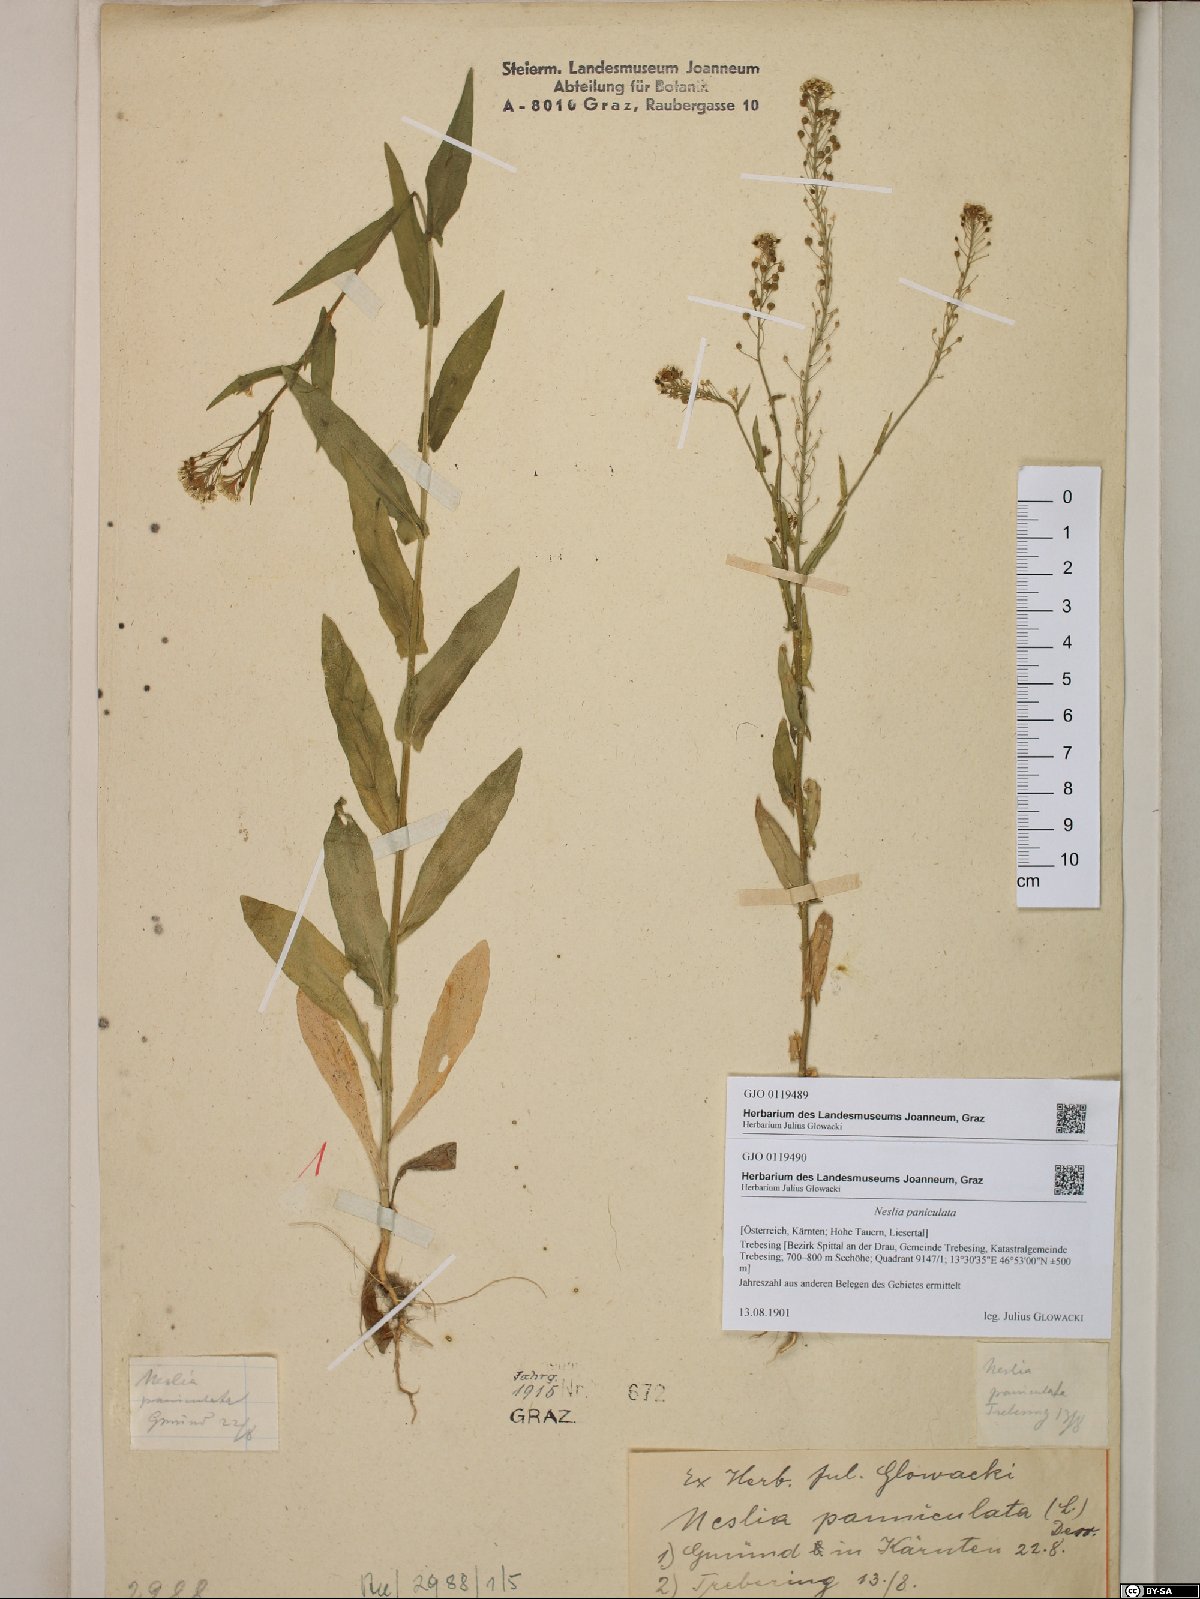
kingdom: Plantae
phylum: Tracheophyta
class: Magnoliopsida
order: Brassicales
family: Brassicaceae
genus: Neslia
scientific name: Neslia paniculata
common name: Ball mustard
